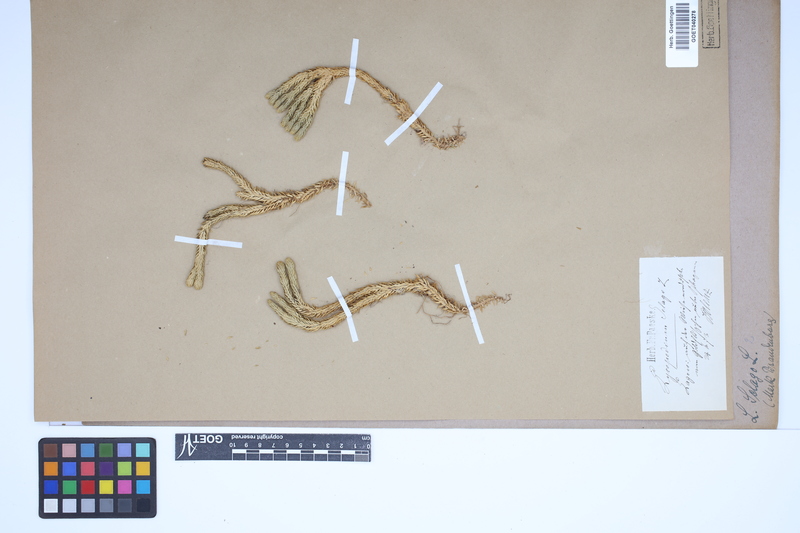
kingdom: Plantae
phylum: Tracheophyta
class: Lycopodiopsida
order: Lycopodiales
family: Lycopodiaceae
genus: Huperzia
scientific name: Huperzia selago
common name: Northern firmoss
